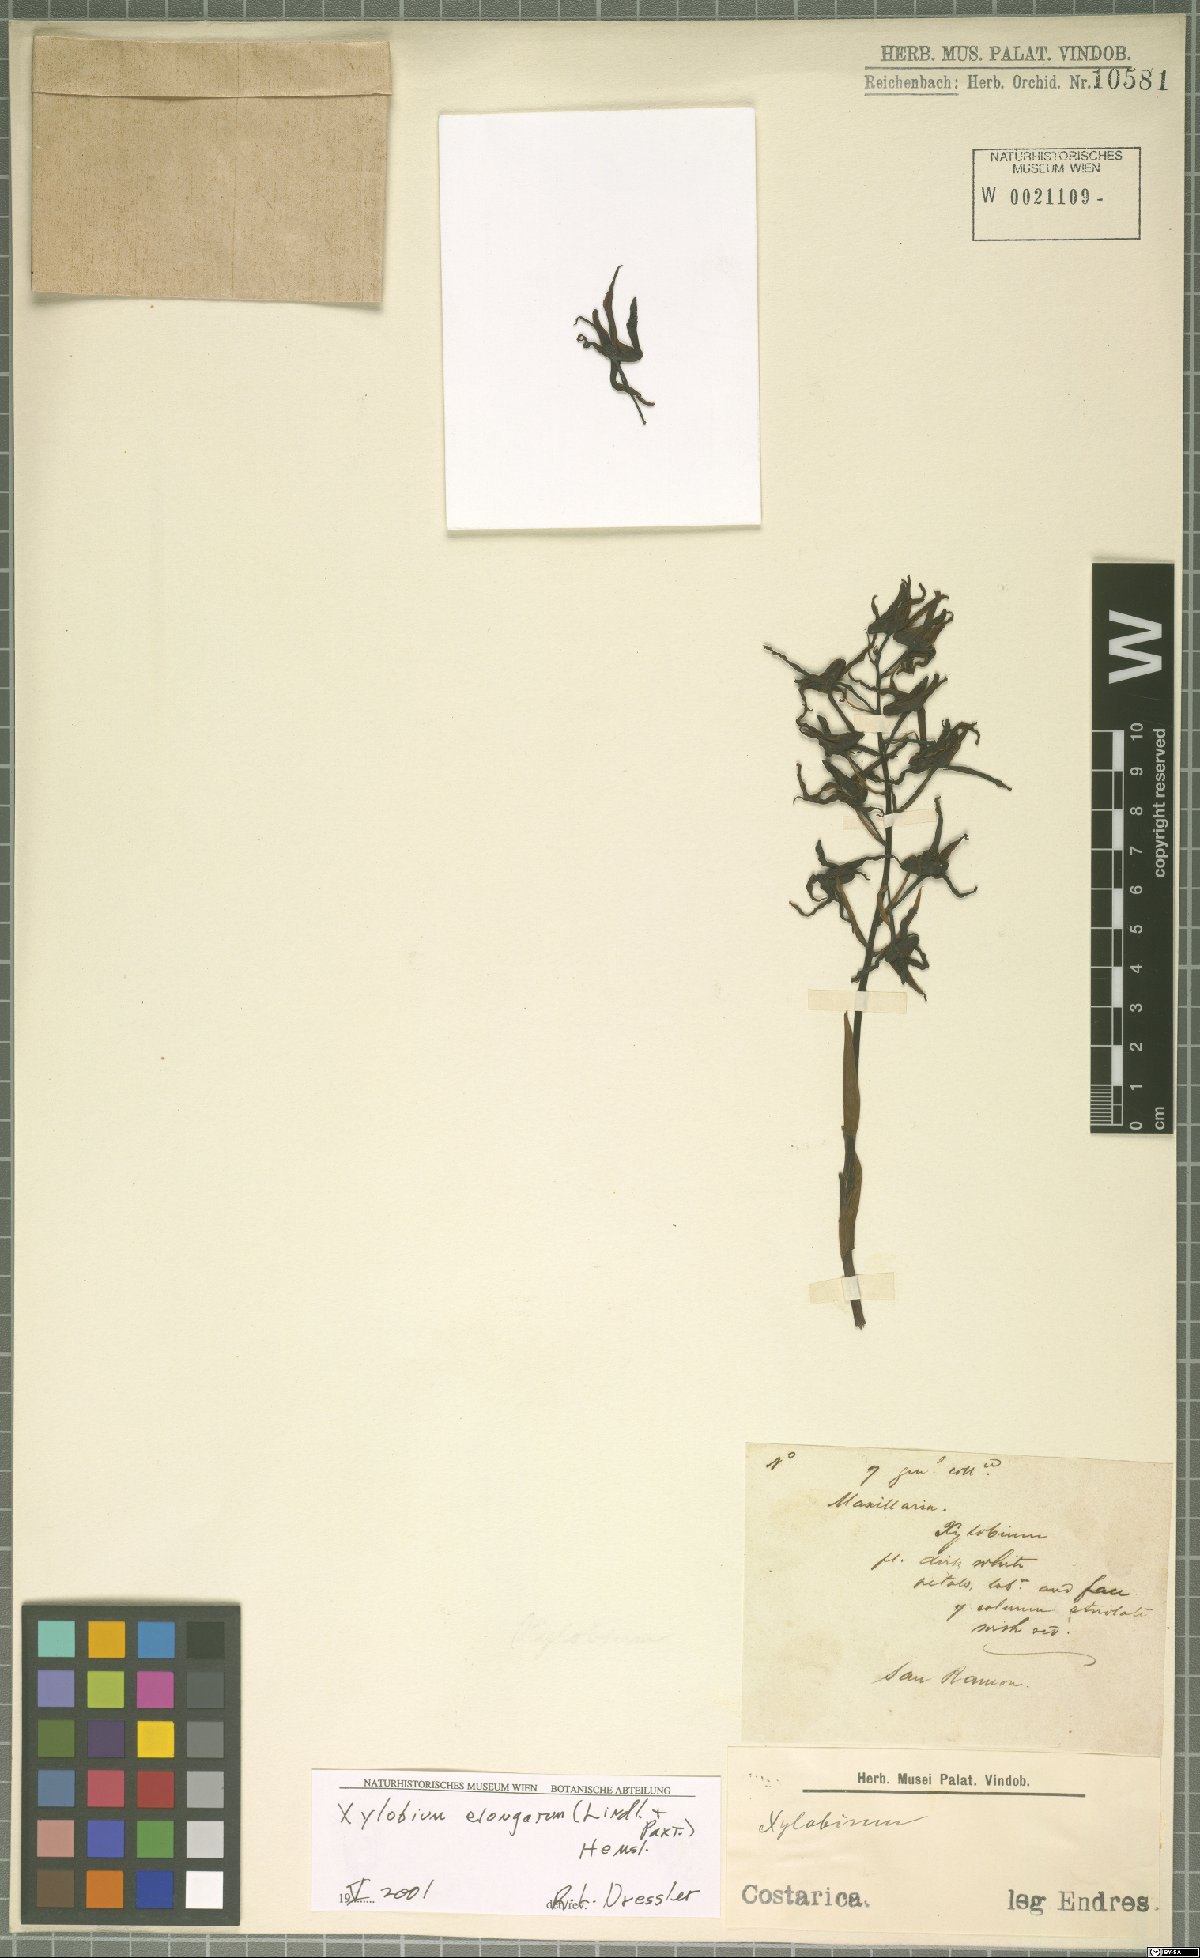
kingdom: Plantae
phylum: Tracheophyta
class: Liliopsida
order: Asparagales
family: Orchidaceae
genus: Xylobium
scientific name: Xylobium elongatum
